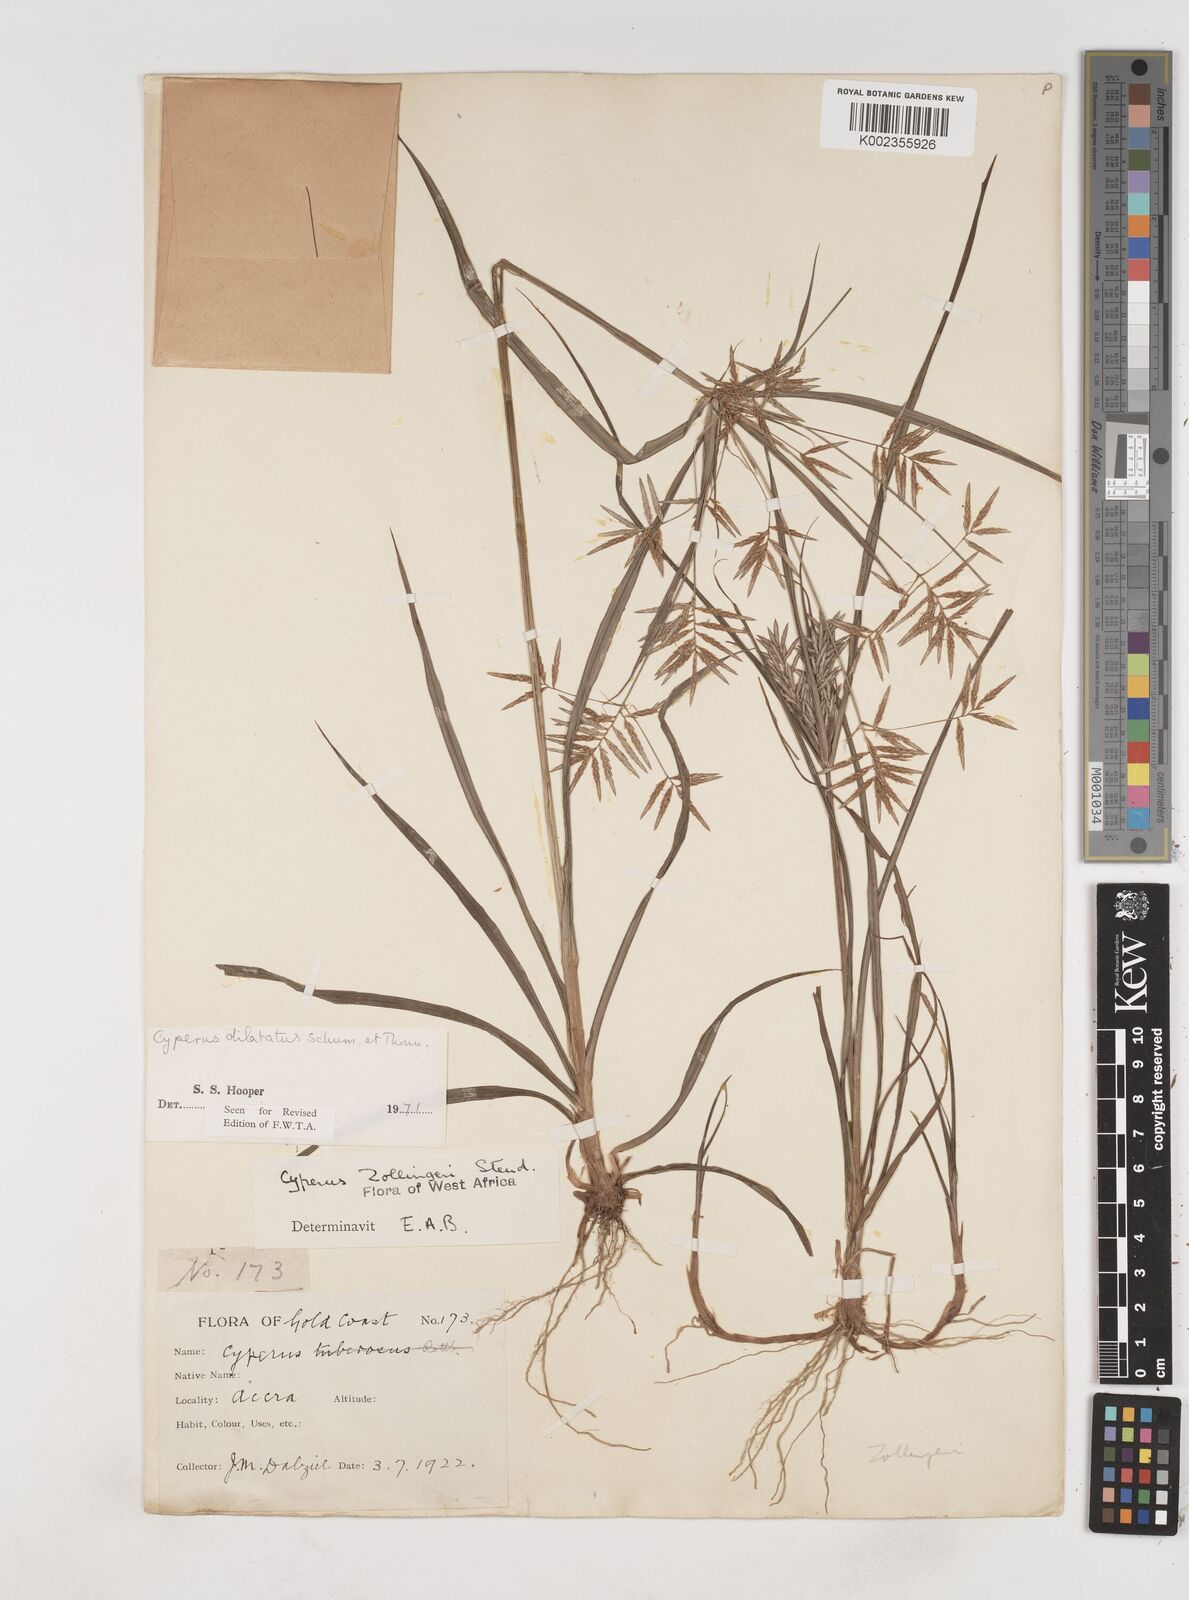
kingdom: Plantae
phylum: Tracheophyta
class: Liliopsida
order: Poales
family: Cyperaceae
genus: Cyperus
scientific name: Cyperus dilatatus
